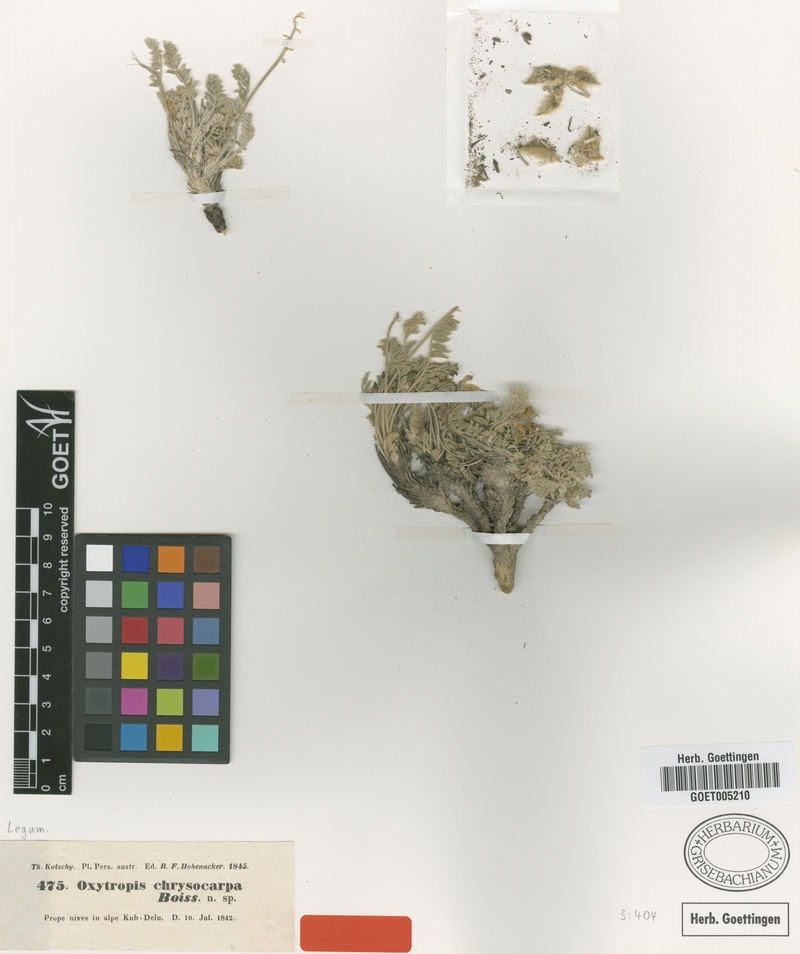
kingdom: Plantae
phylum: Tracheophyta
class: Magnoliopsida
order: Fabales
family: Fabaceae
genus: Oxytropis
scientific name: Oxytropis chrysocarpa
